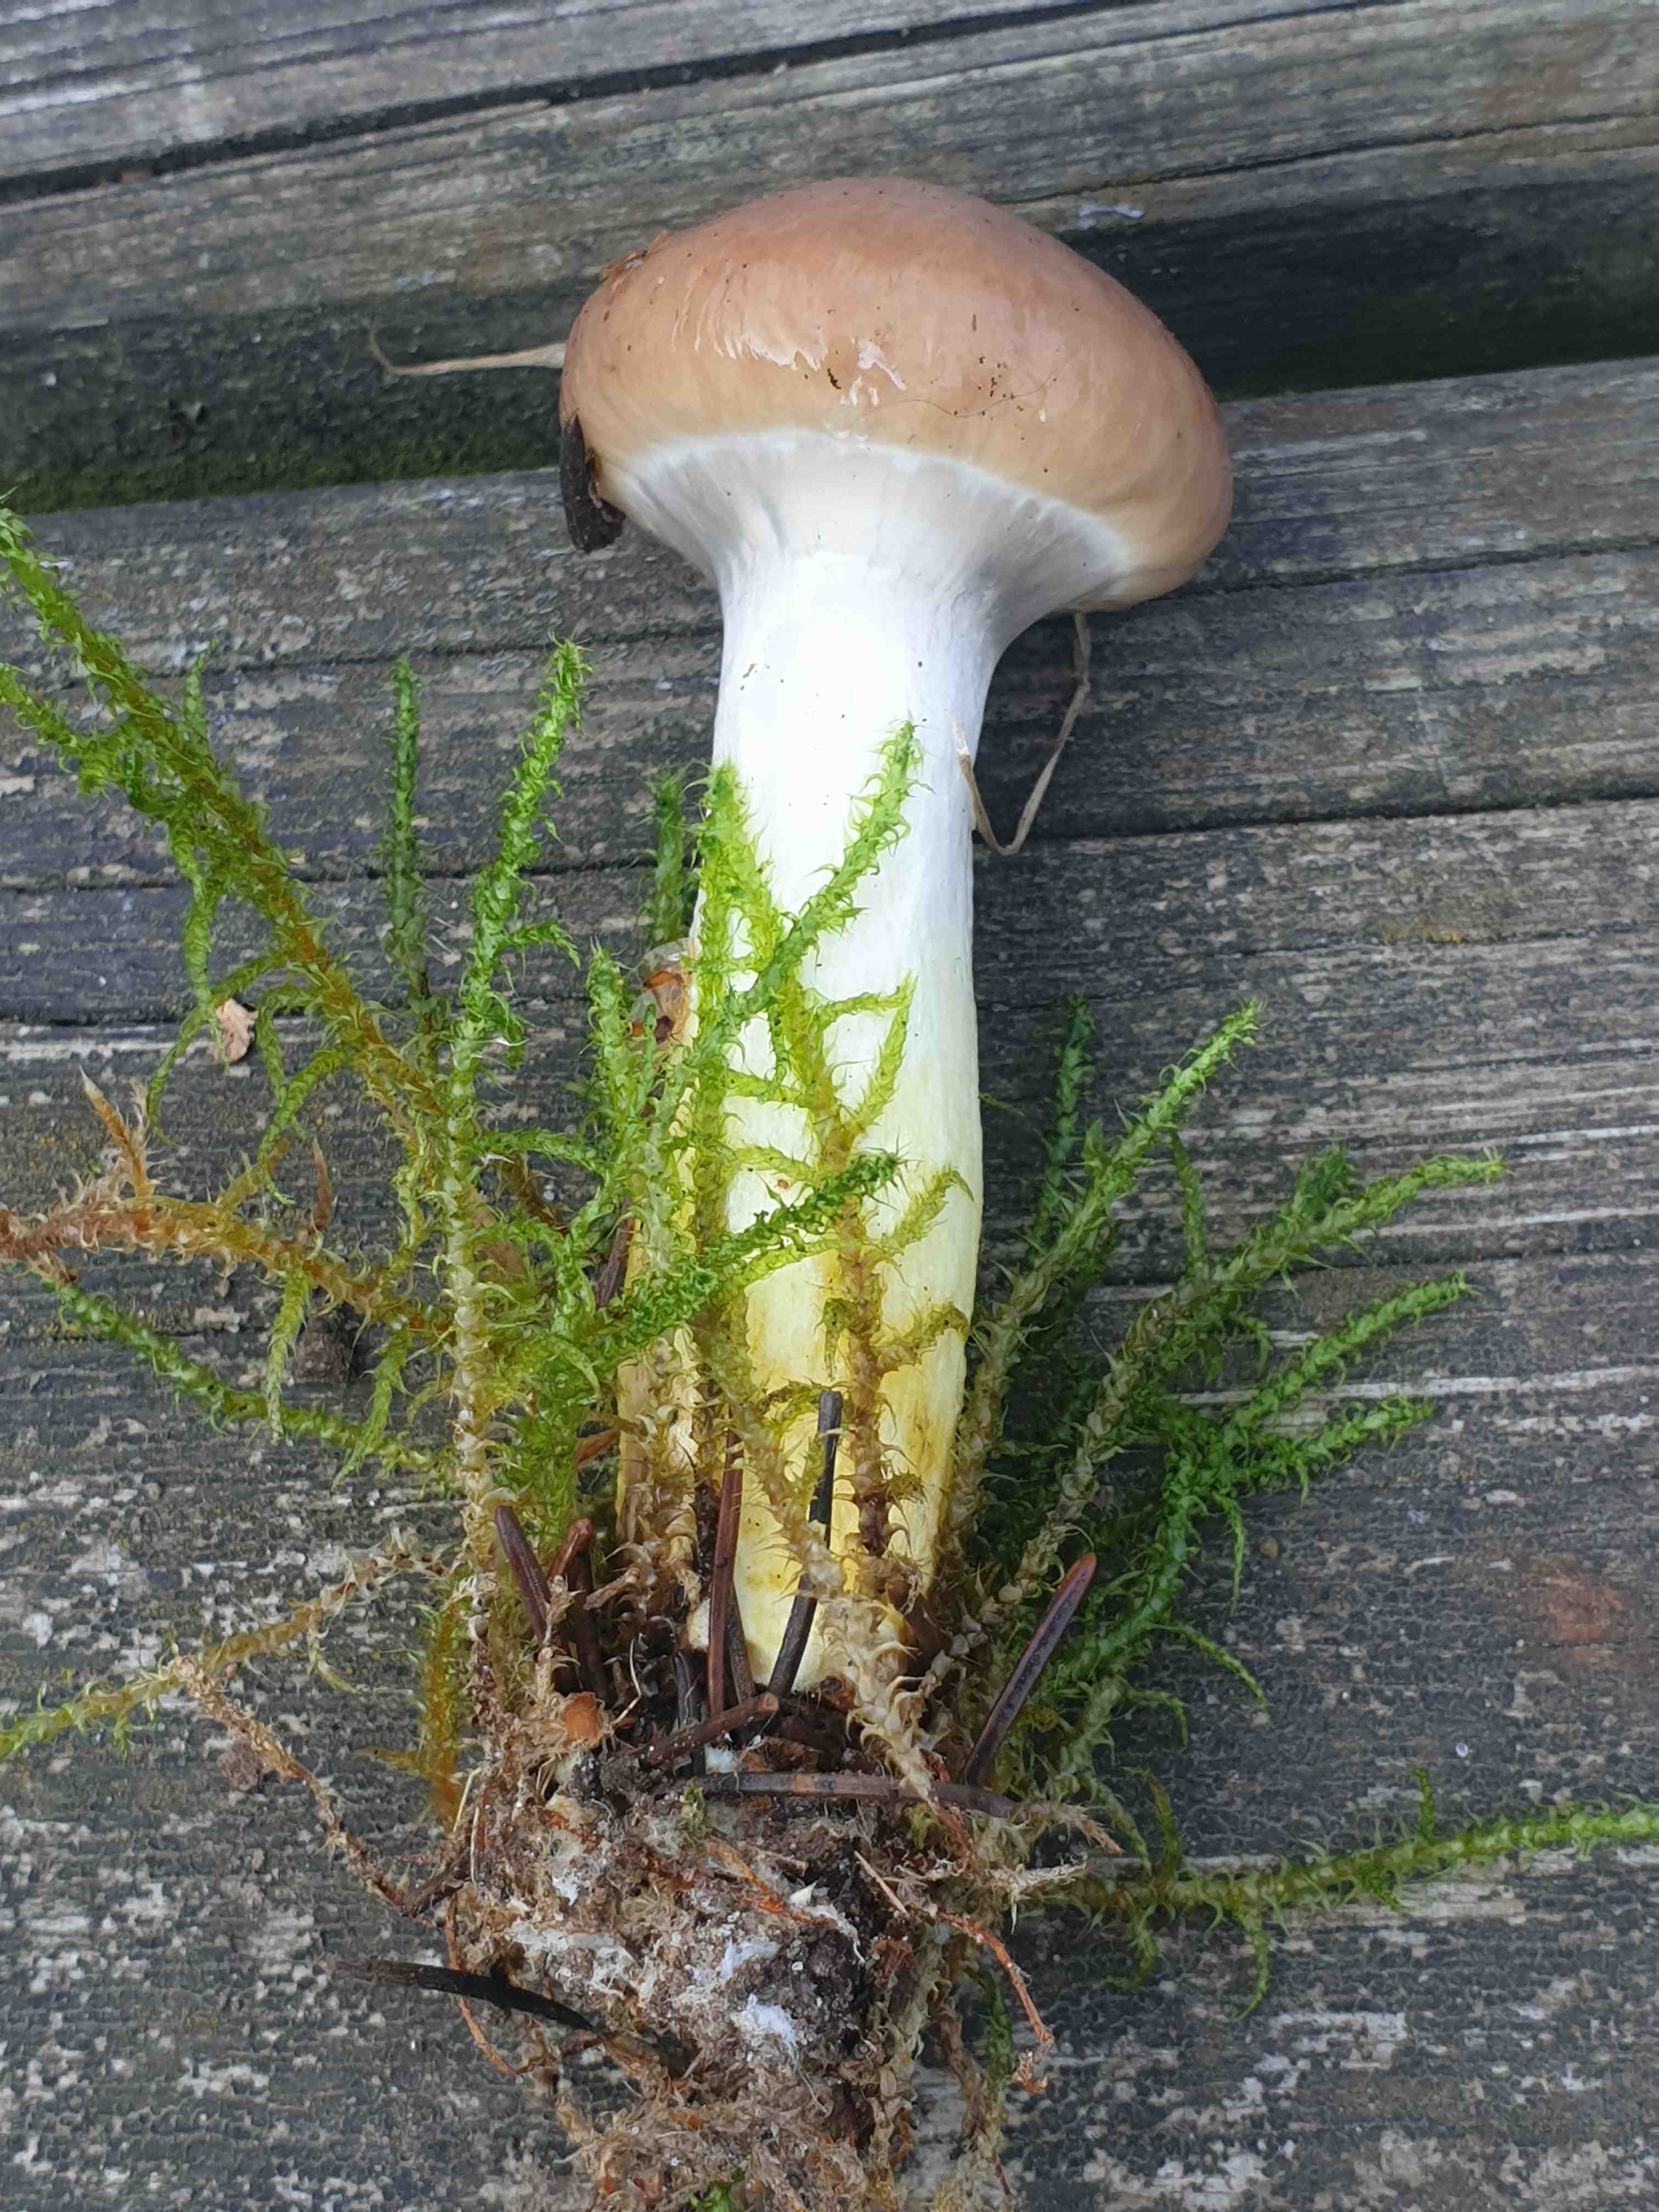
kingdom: Fungi
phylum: Basidiomycota
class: Agaricomycetes
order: Boletales
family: Gomphidiaceae
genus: Gomphidius
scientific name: Gomphidius glutinosus
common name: grå slimslør
